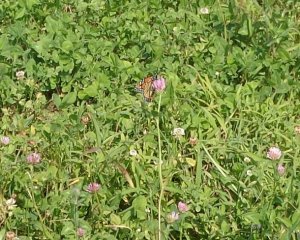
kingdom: Animalia
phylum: Arthropoda
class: Insecta
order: Lepidoptera
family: Nymphalidae
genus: Danaus
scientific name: Danaus plexippus
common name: Monarch
